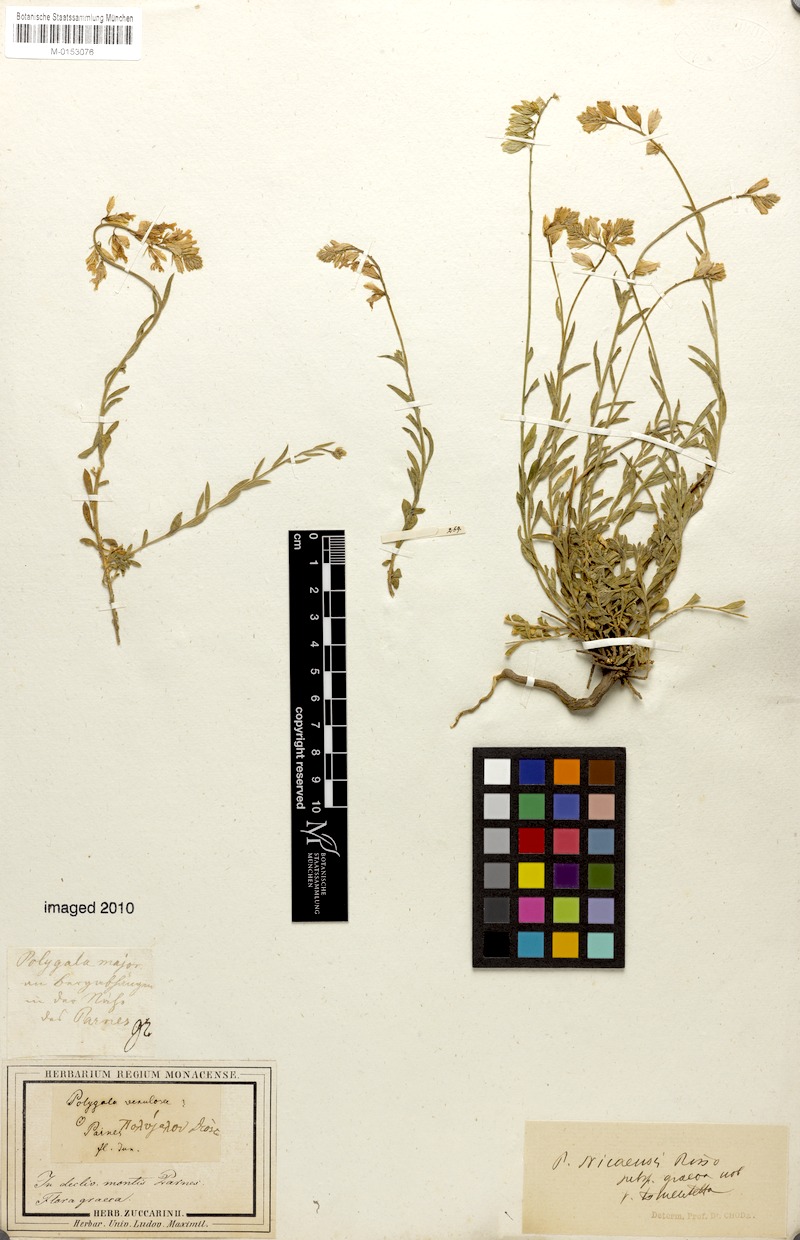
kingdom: Plantae
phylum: Tracheophyta
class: Magnoliopsida
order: Fabales
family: Polygalaceae
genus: Polygala
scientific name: Polygala nicaeensis
